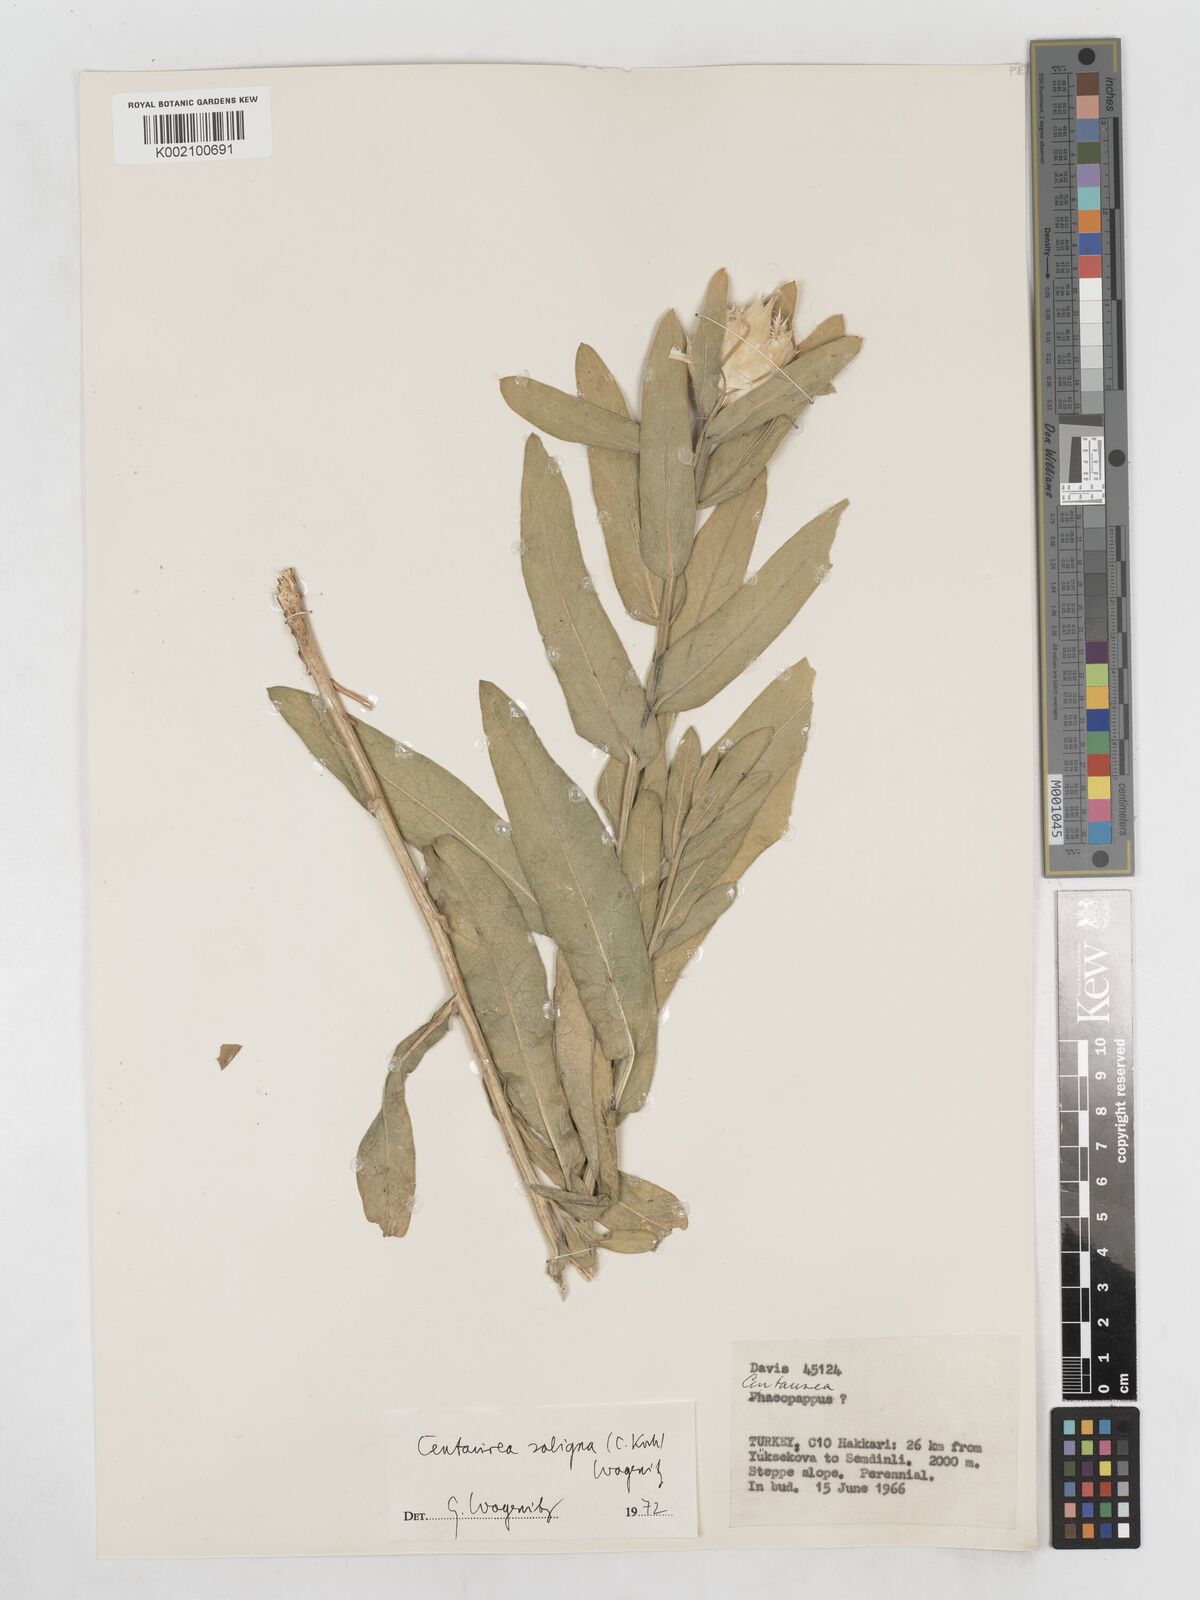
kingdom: Plantae
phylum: Tracheophyta
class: Magnoliopsida
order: Asterales
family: Asteraceae
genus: Centaurea
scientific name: Centaurea saligna
